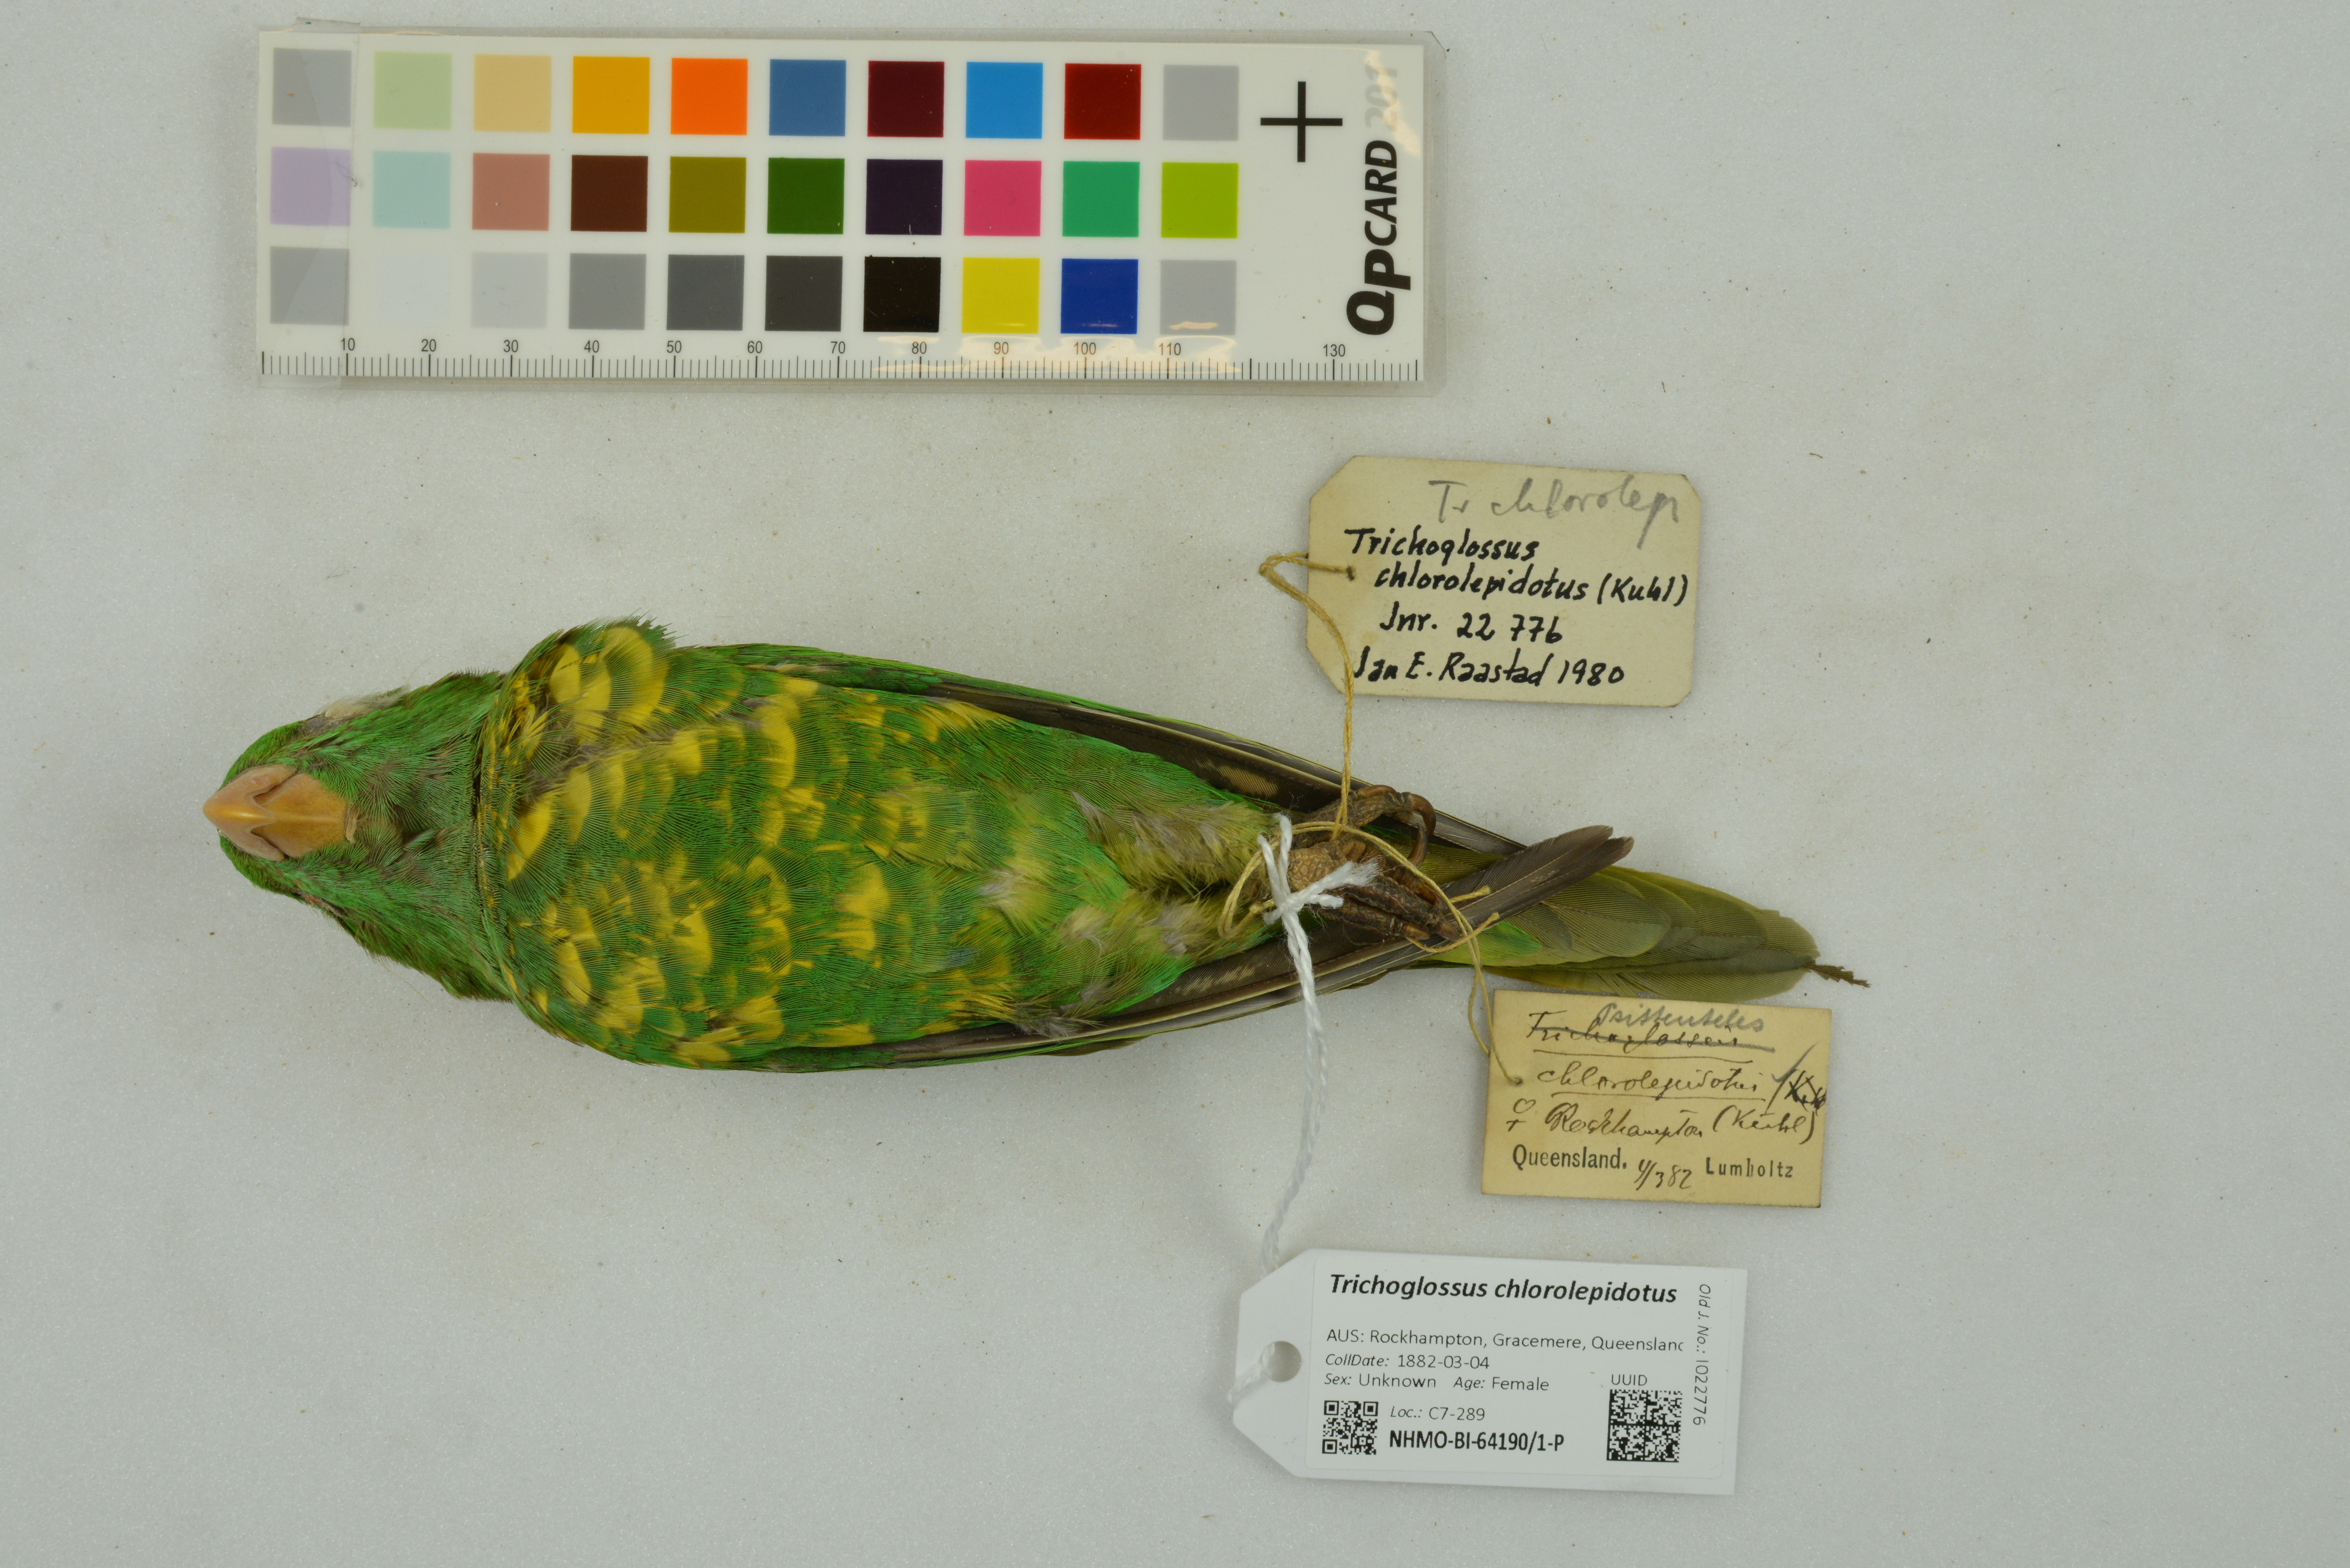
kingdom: Animalia
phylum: Chordata
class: Aves
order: Psittaciformes
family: Psittacidae
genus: Trichoglossus
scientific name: Trichoglossus chlorolepidotus
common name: Scaly-breasted lorikeet
